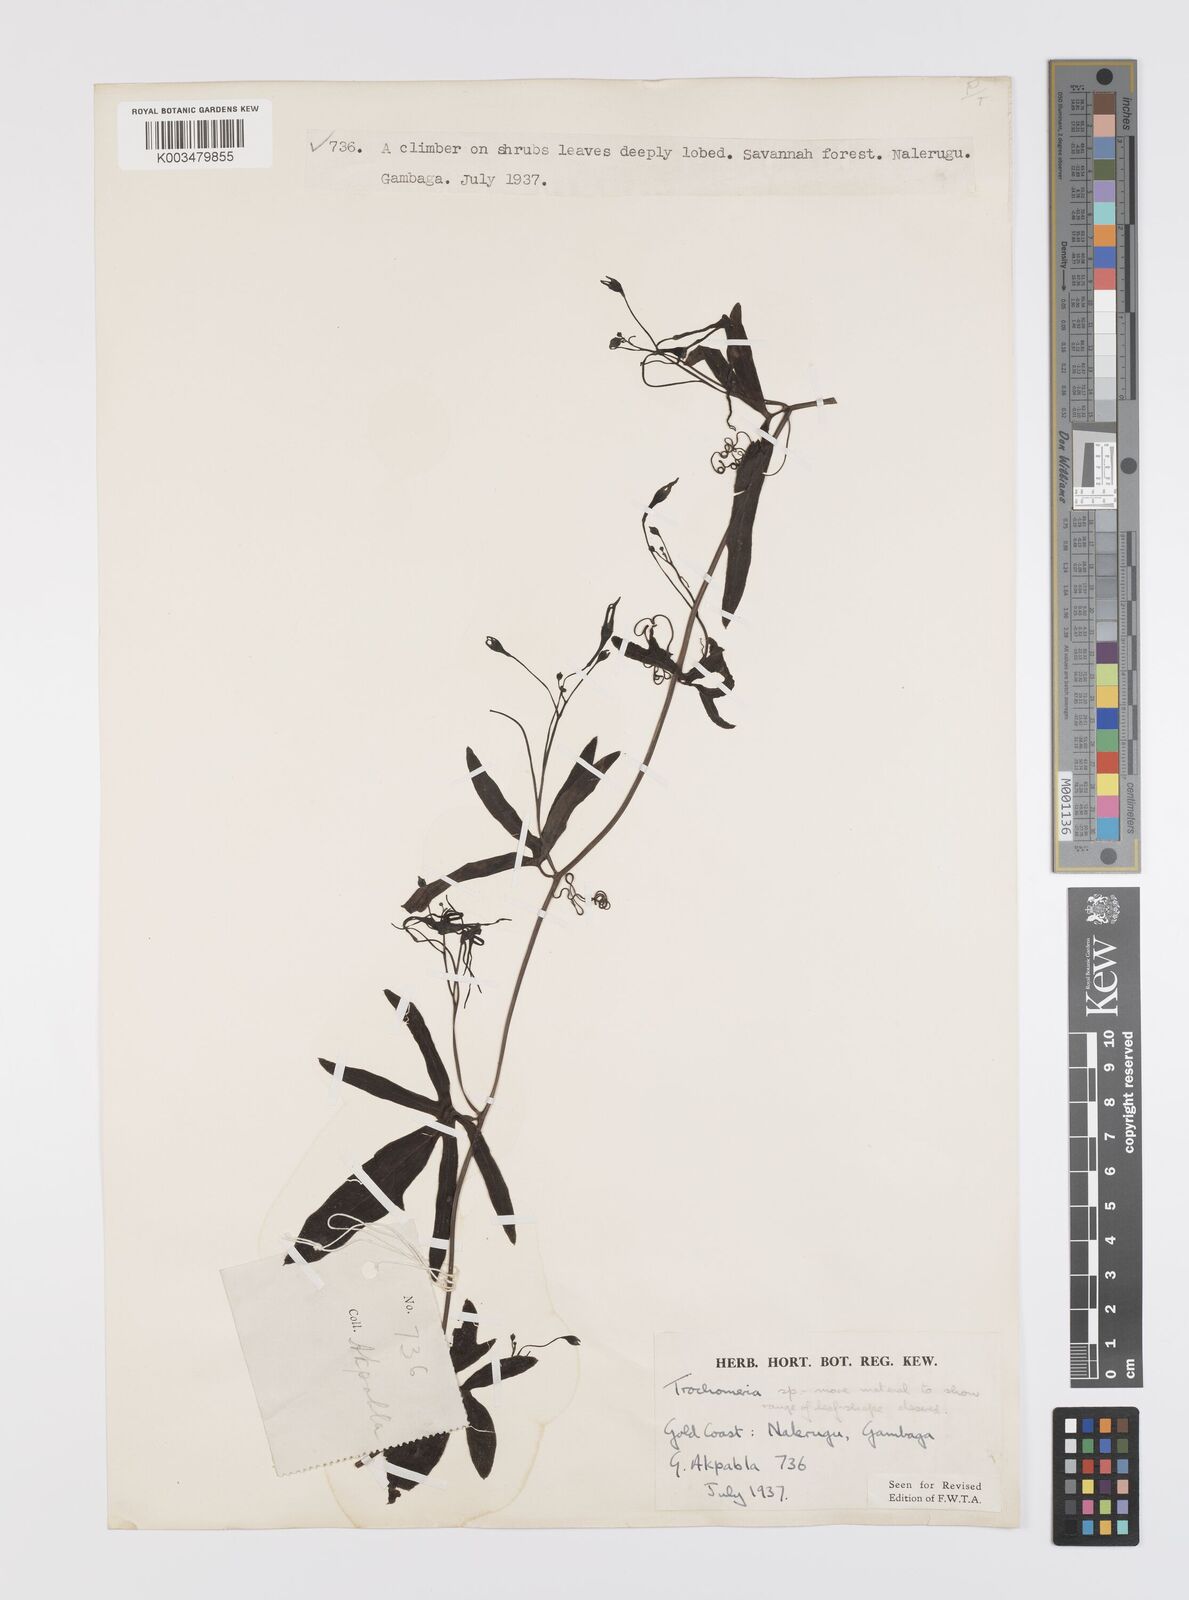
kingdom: Plantae
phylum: Tracheophyta
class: Magnoliopsida
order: Cucurbitales
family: Cucurbitaceae
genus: Trochomeria
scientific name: Trochomeria macrocarpa
